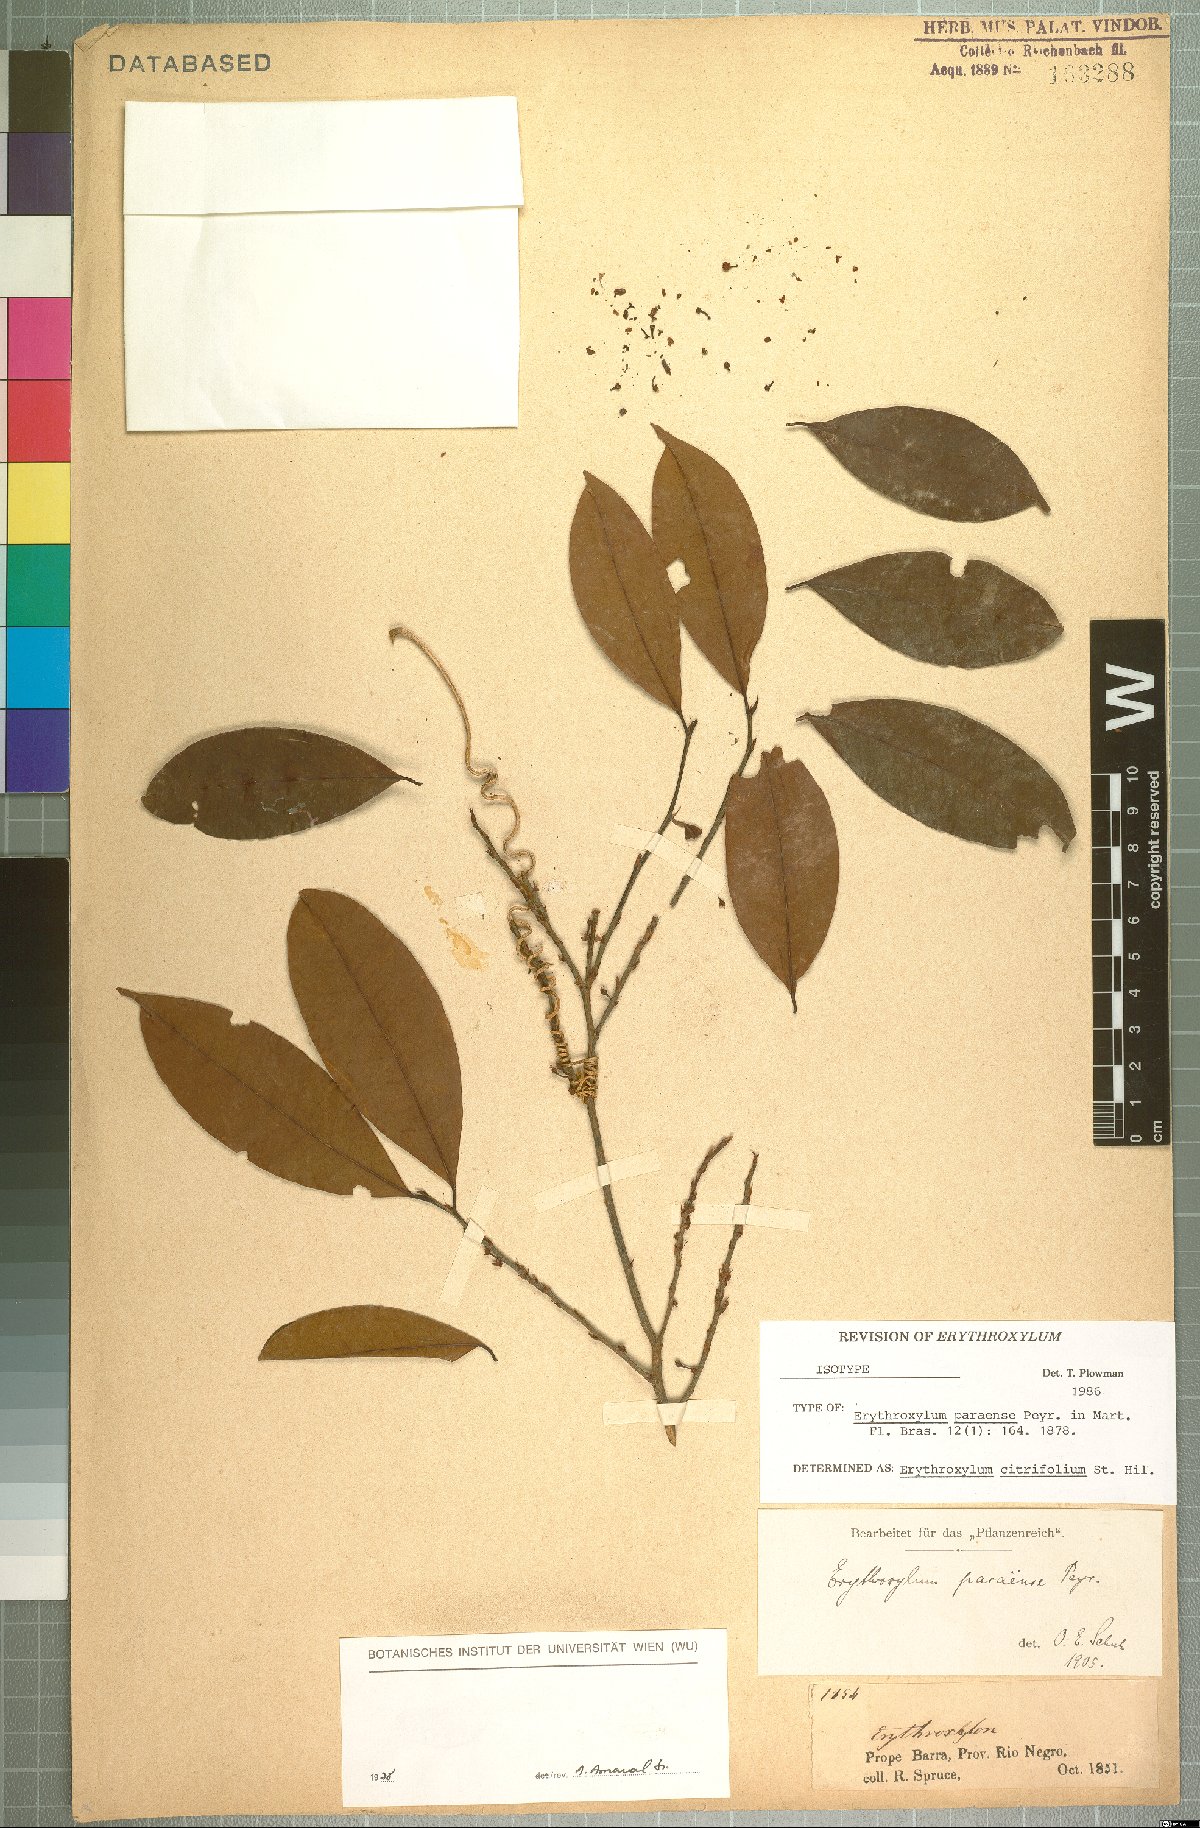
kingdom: Plantae
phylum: Tracheophyta
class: Magnoliopsida
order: Malpighiales
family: Erythroxylaceae
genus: Erythroxylum
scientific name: Erythroxylum citrifolium
